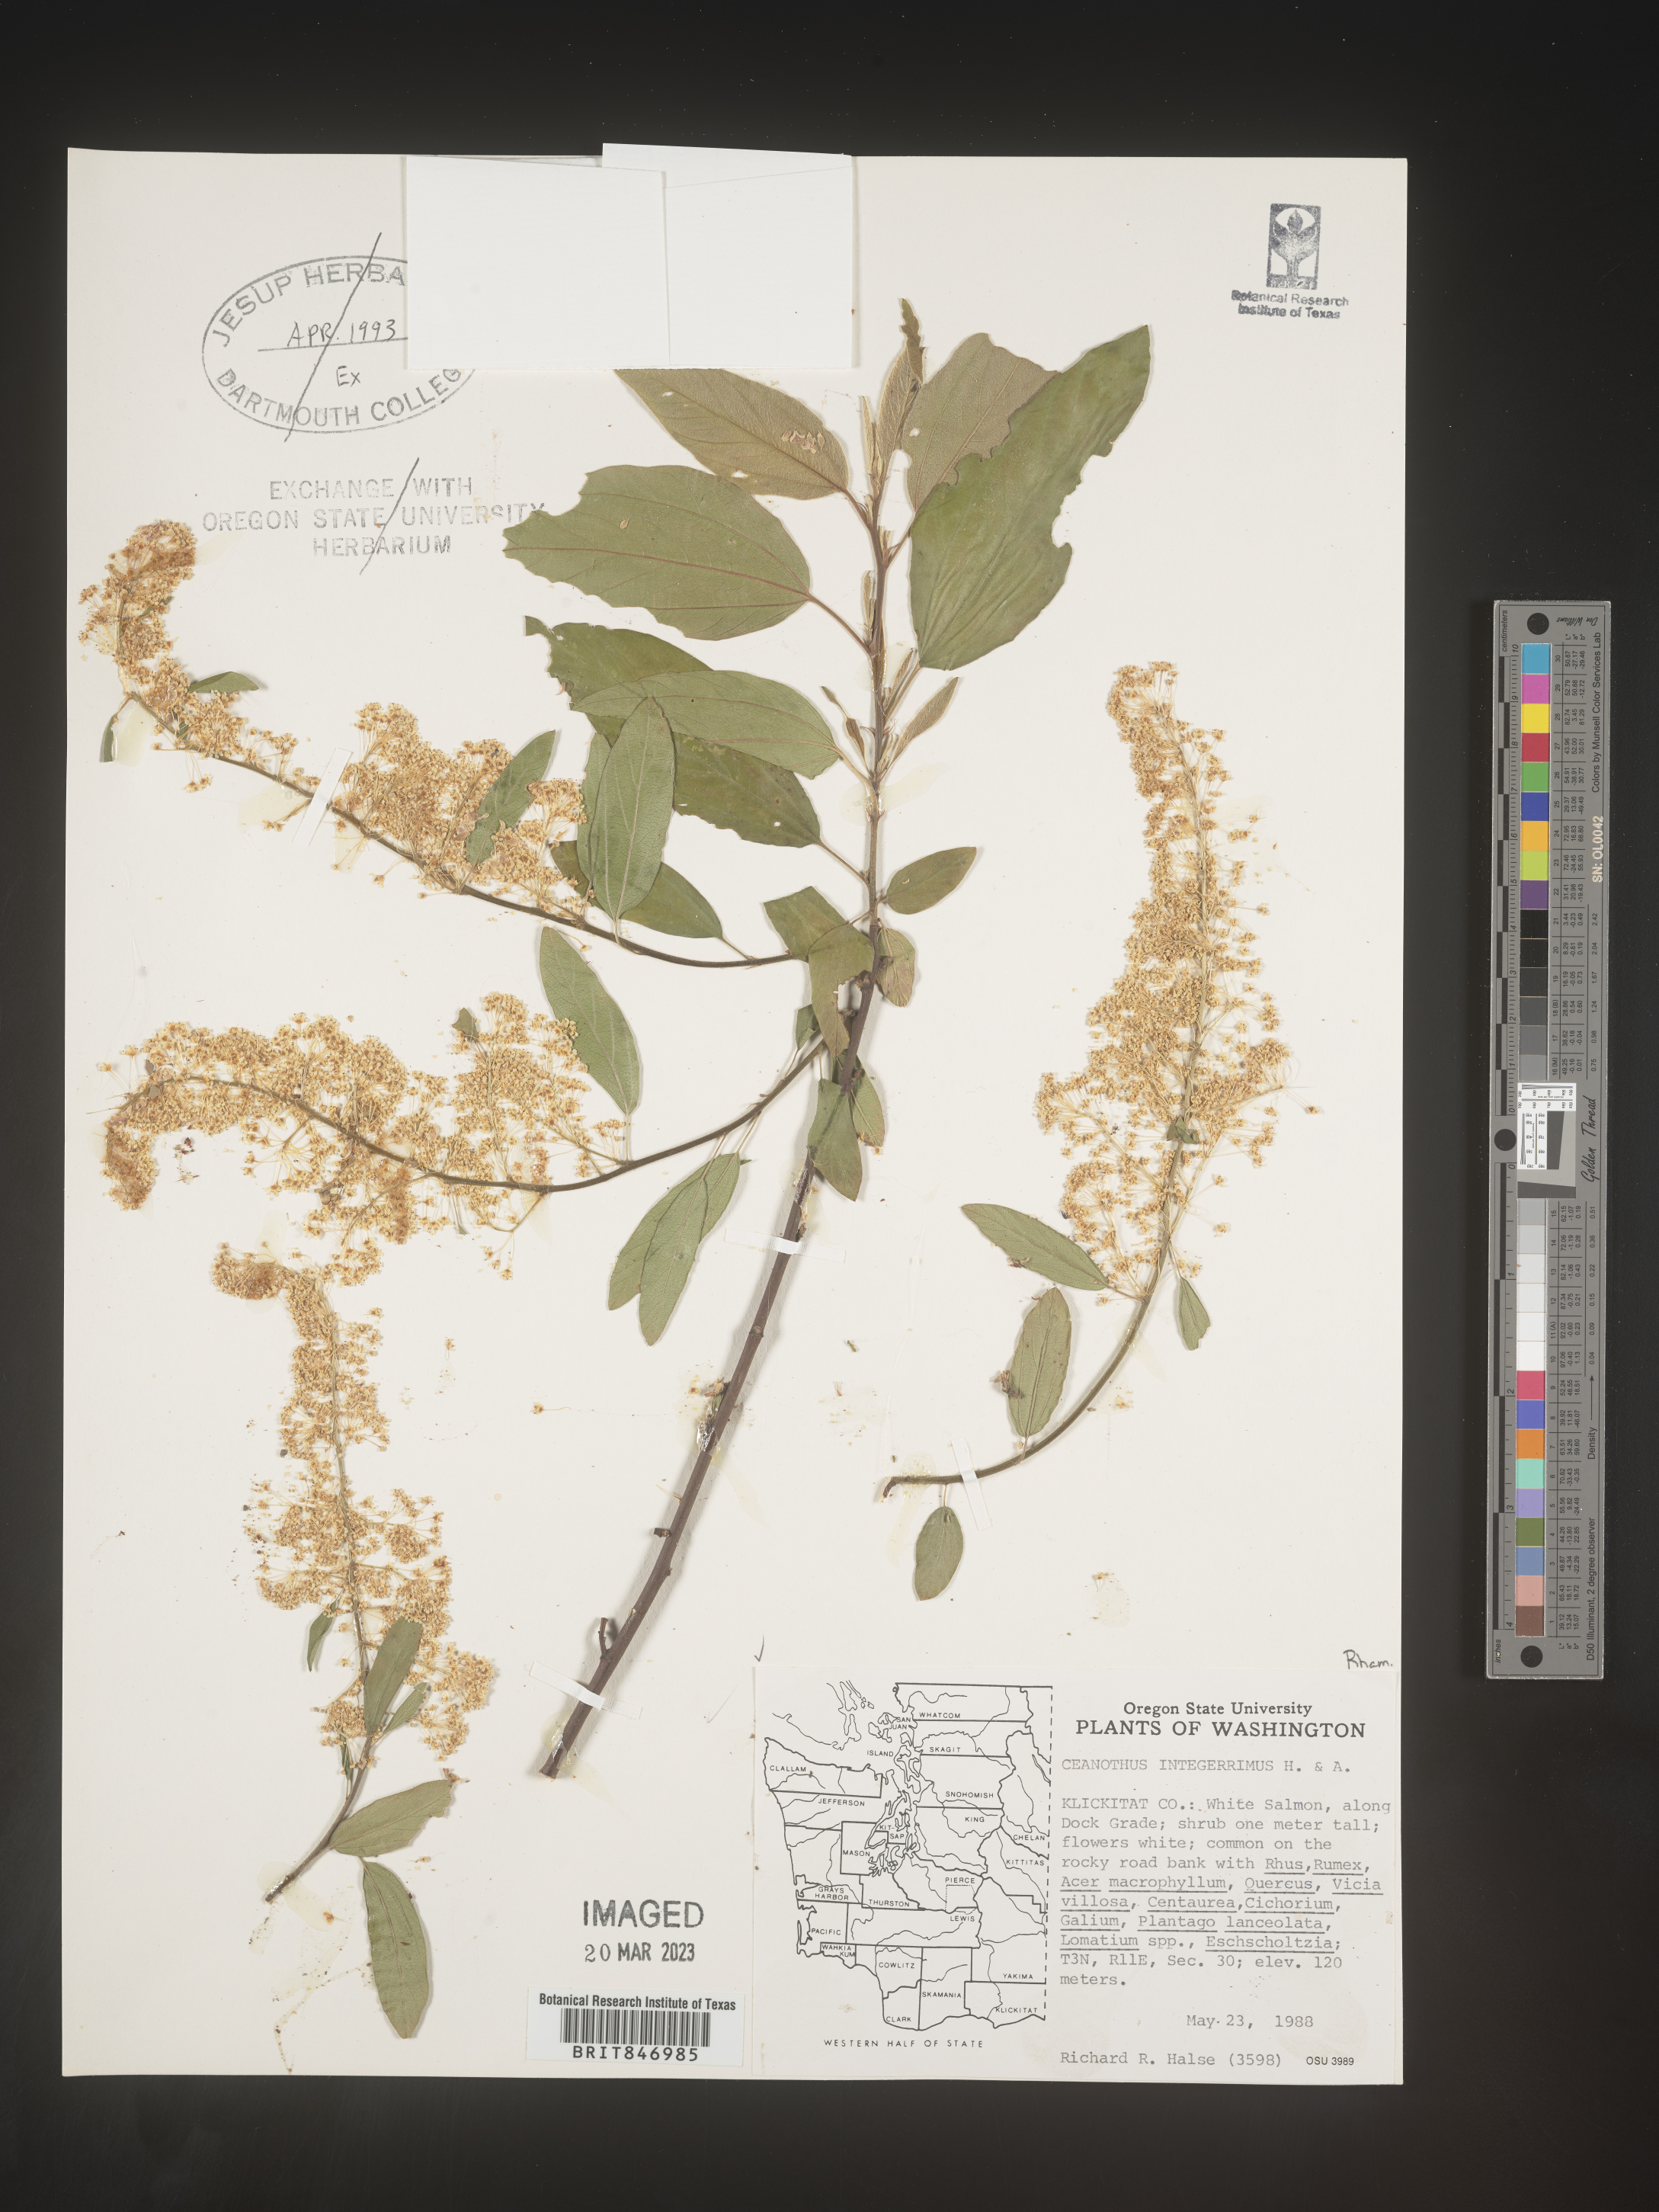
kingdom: Plantae
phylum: Tracheophyta
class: Magnoliopsida
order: Rosales
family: Rhamnaceae
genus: Ceanothus
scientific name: Ceanothus integerrimus
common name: Deerbrush ceanothus
